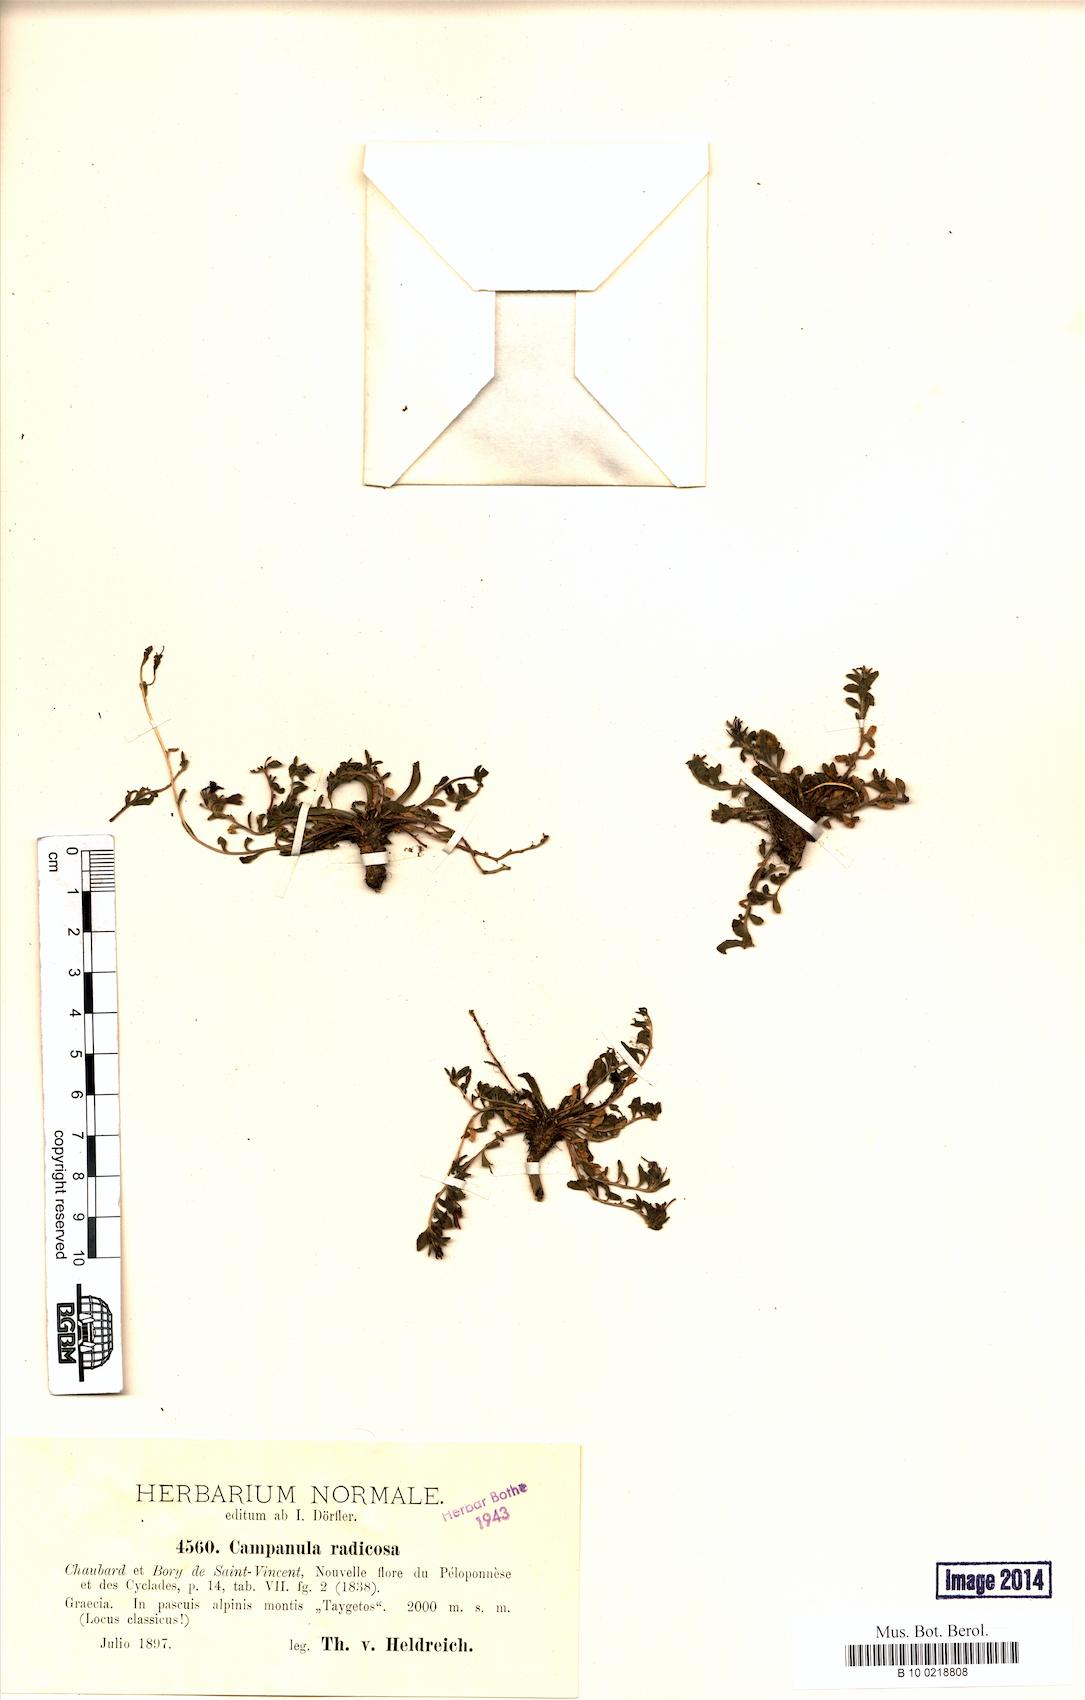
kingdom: Plantae
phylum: Tracheophyta
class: Magnoliopsida
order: Asterales
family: Campanulaceae
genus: Campanula
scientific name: Campanula radicosa
